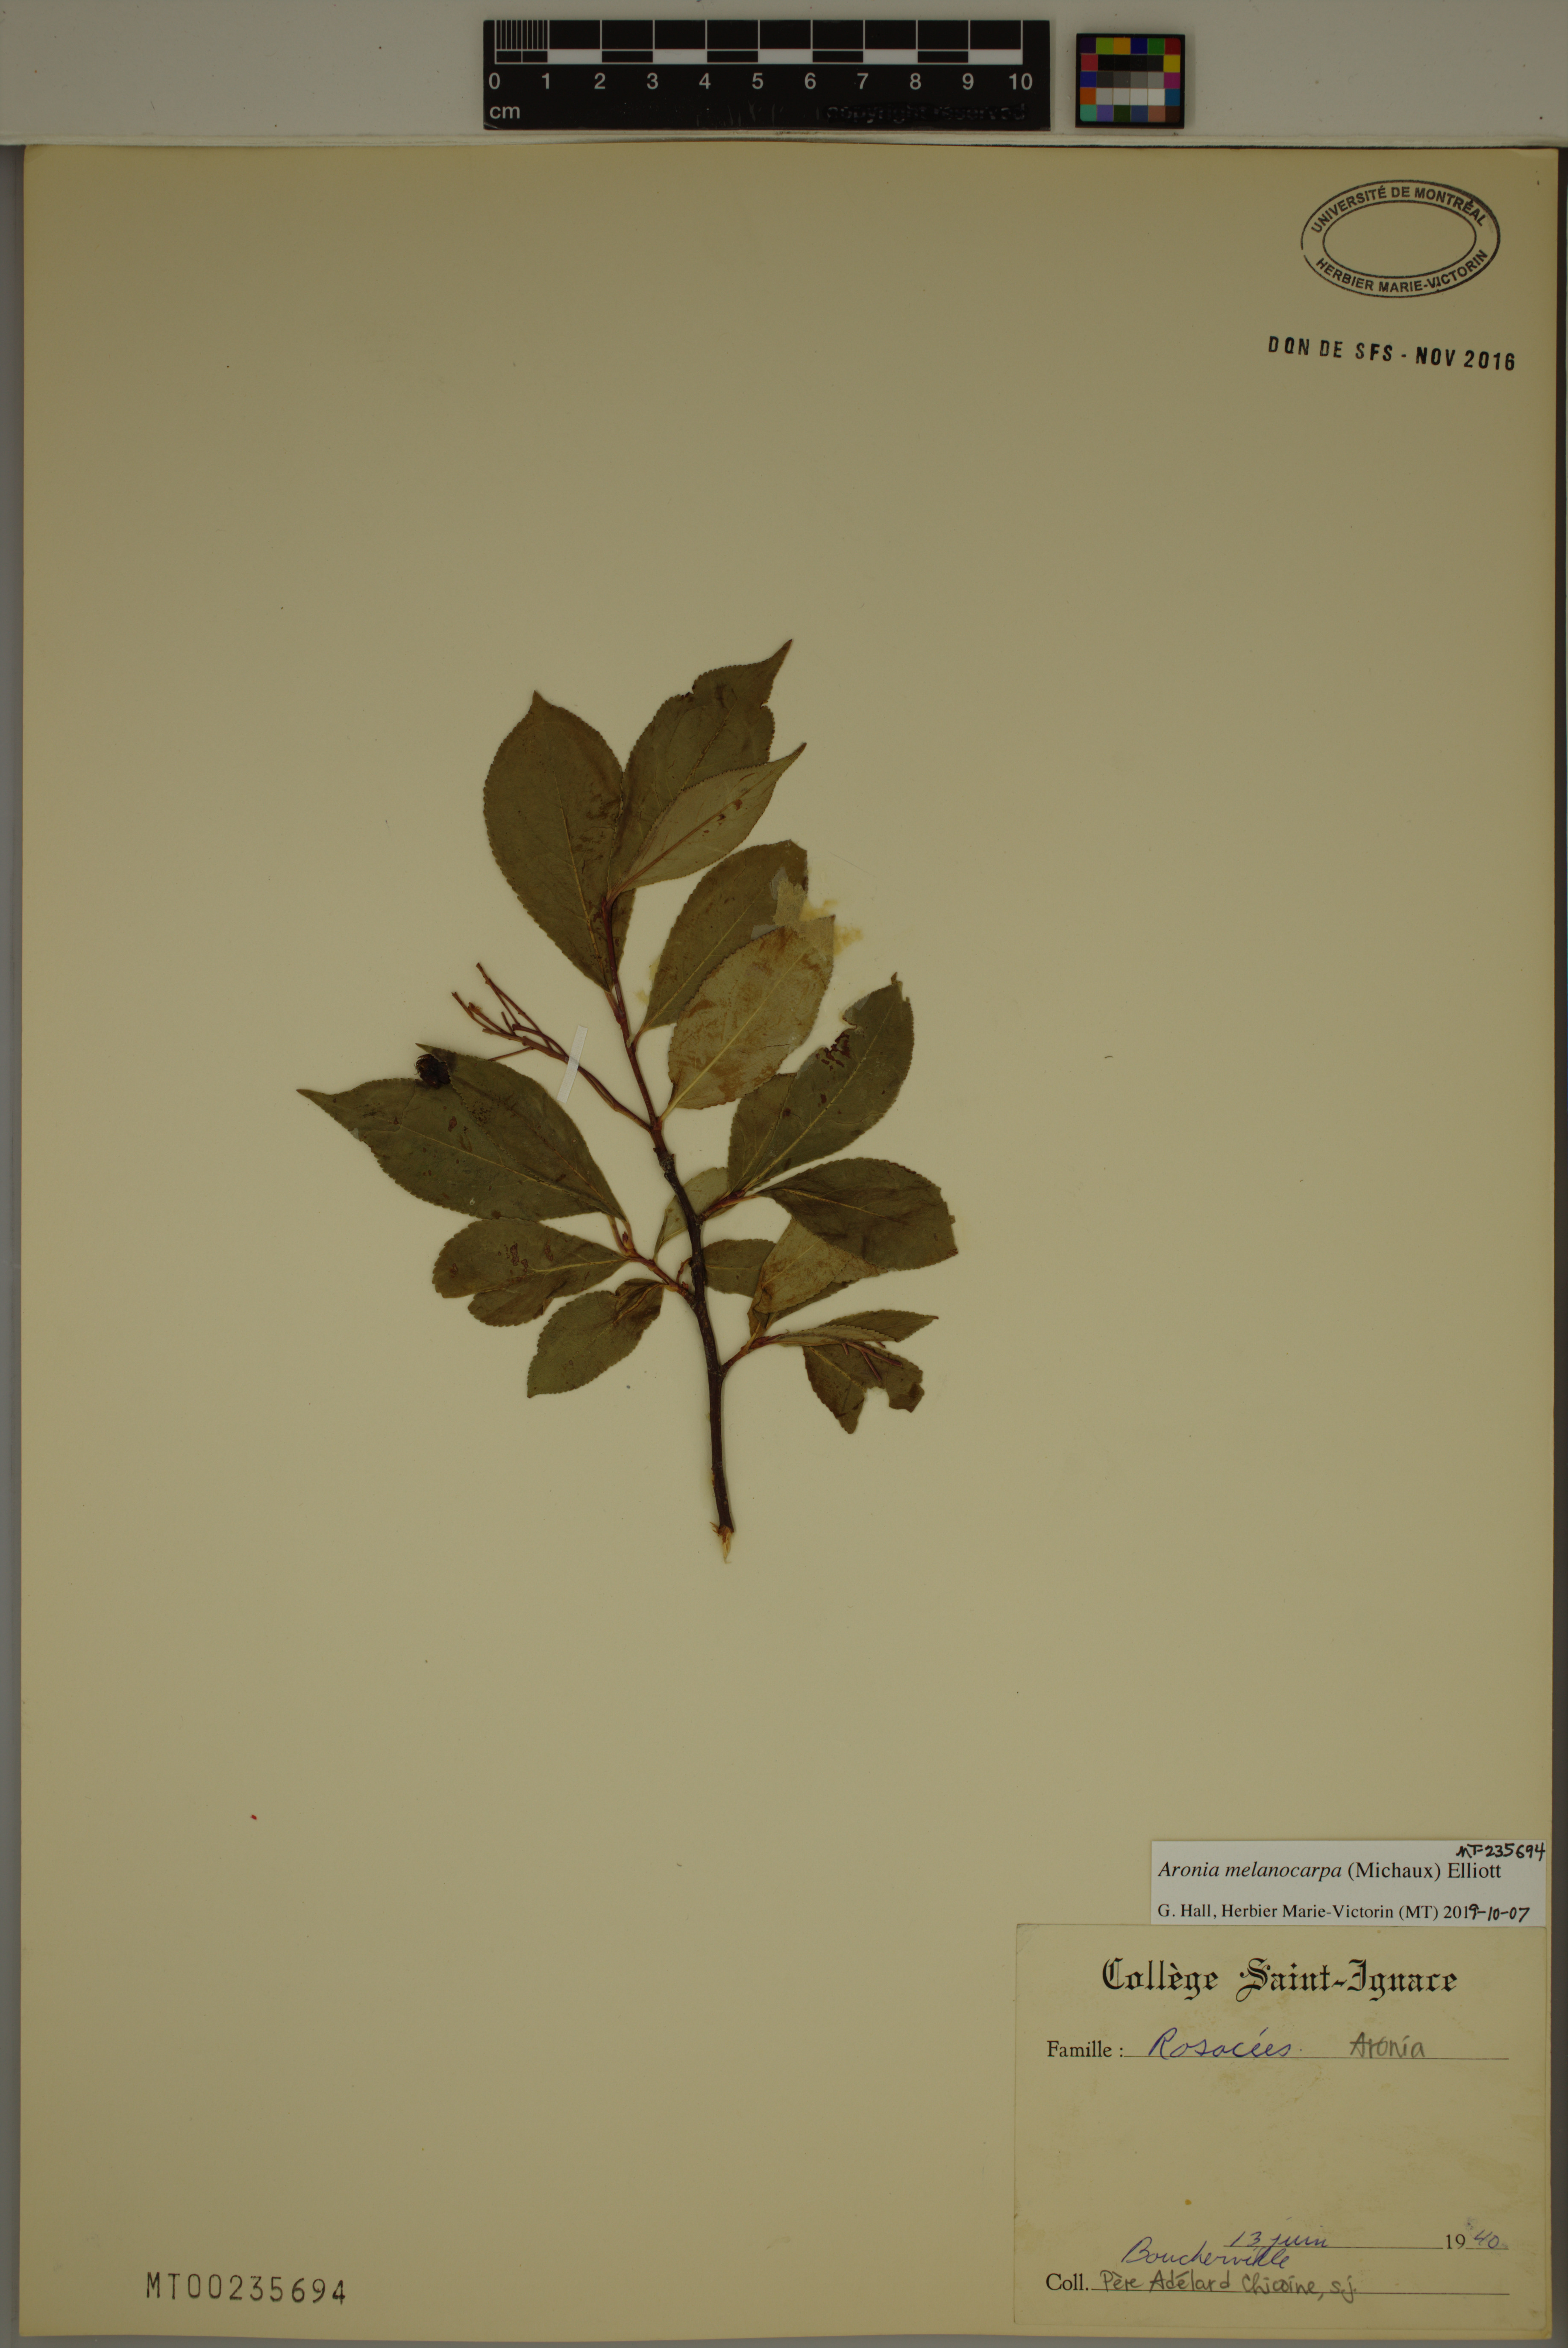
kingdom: Plantae
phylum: Tracheophyta
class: Magnoliopsida
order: Rosales
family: Rosaceae
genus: Aronia
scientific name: Aronia melanocarpa
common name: Black chokeberry
